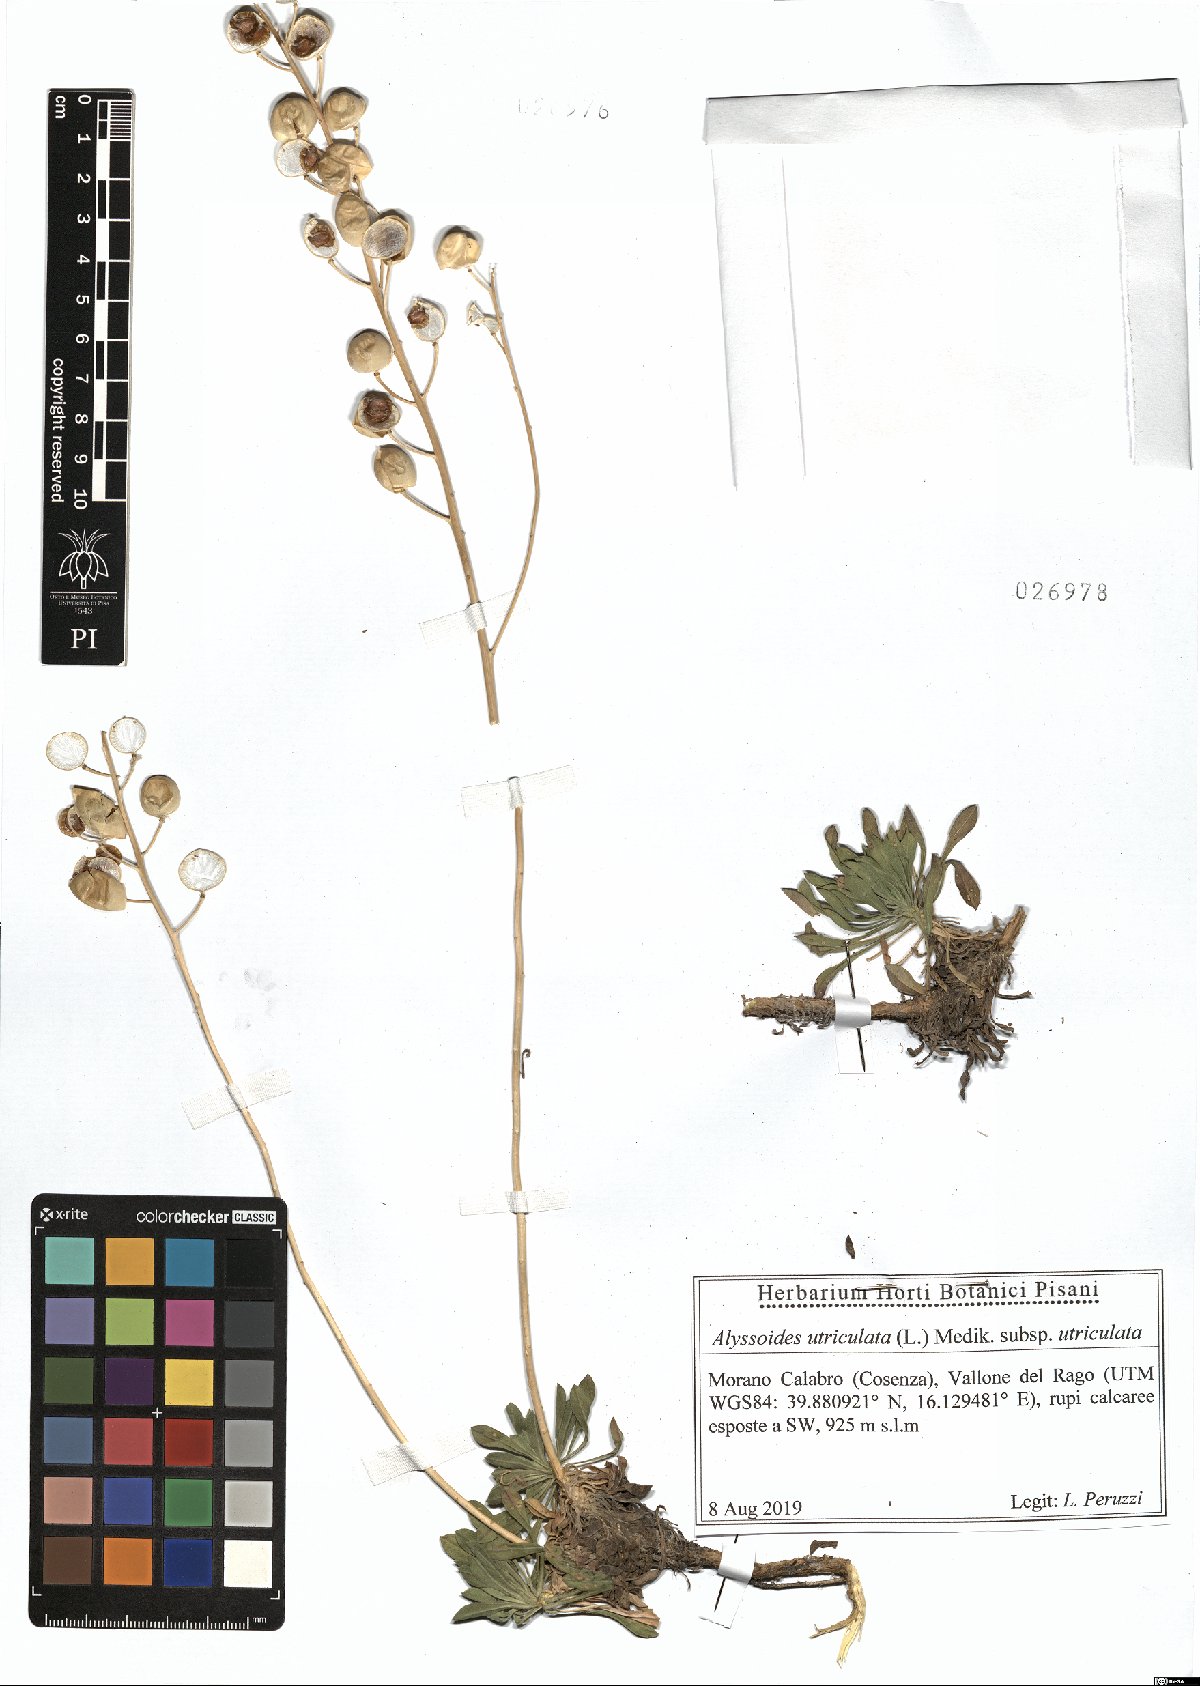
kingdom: Plantae
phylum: Tracheophyta
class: Magnoliopsida
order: Brassicales
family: Brassicaceae
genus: Alyssoides
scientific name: Alyssoides utriculata
